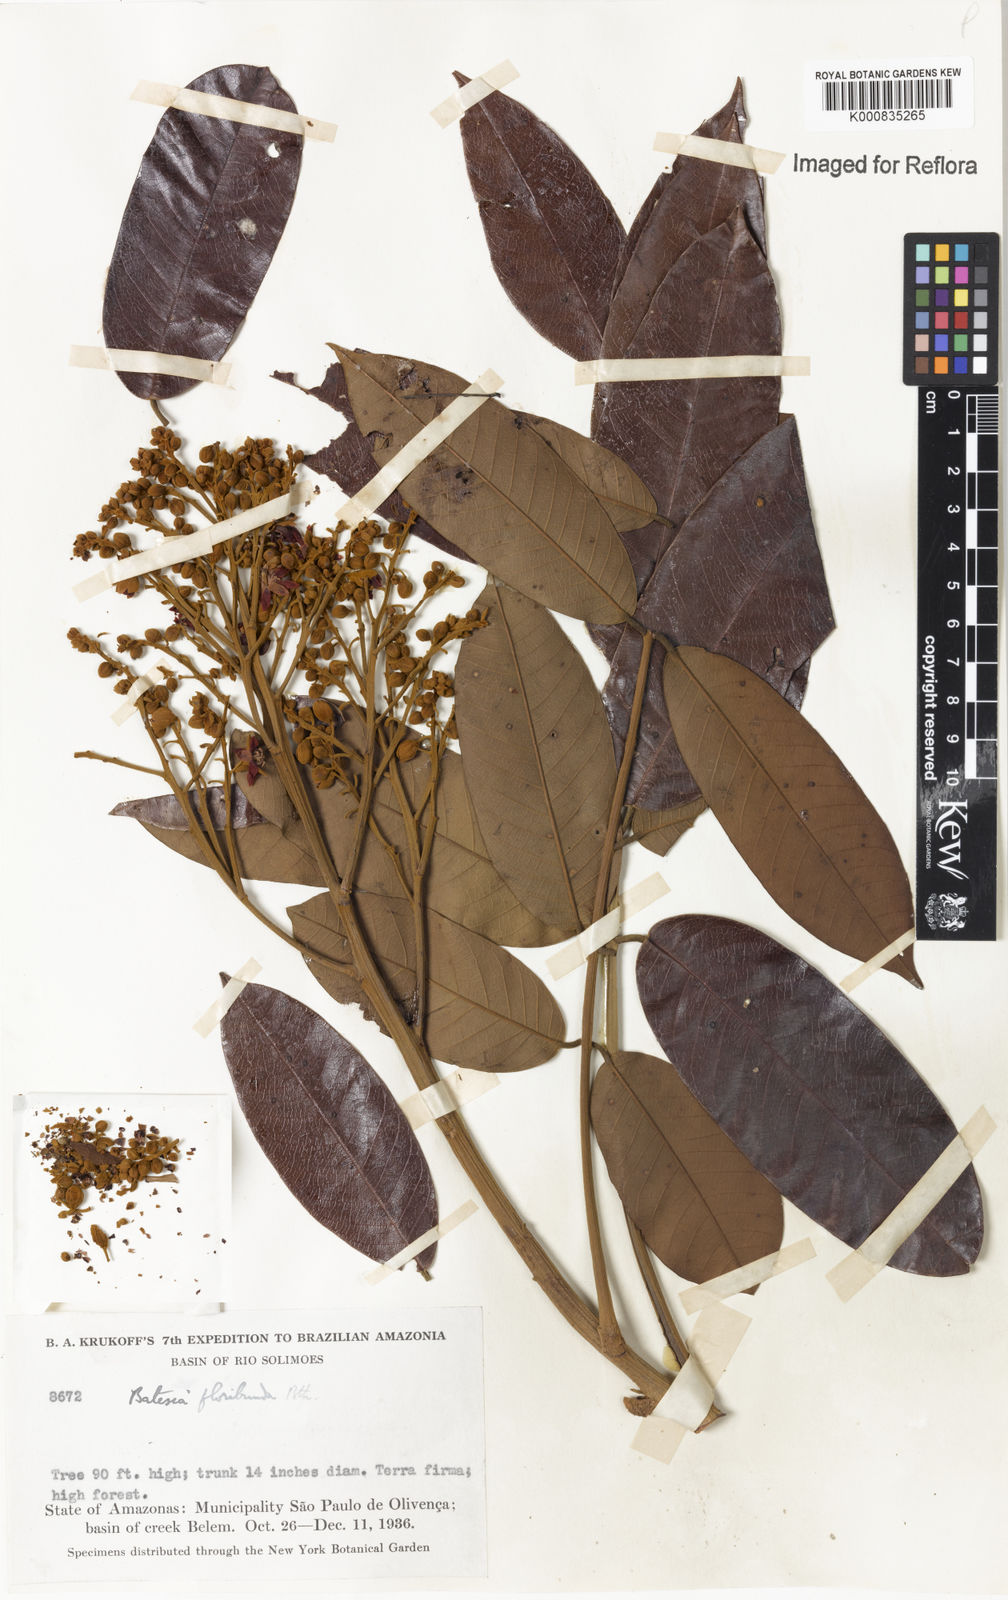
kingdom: Plantae
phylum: Tracheophyta
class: Magnoliopsida
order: Fabales
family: Fabaceae
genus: Batesia
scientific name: Batesia floribunda
